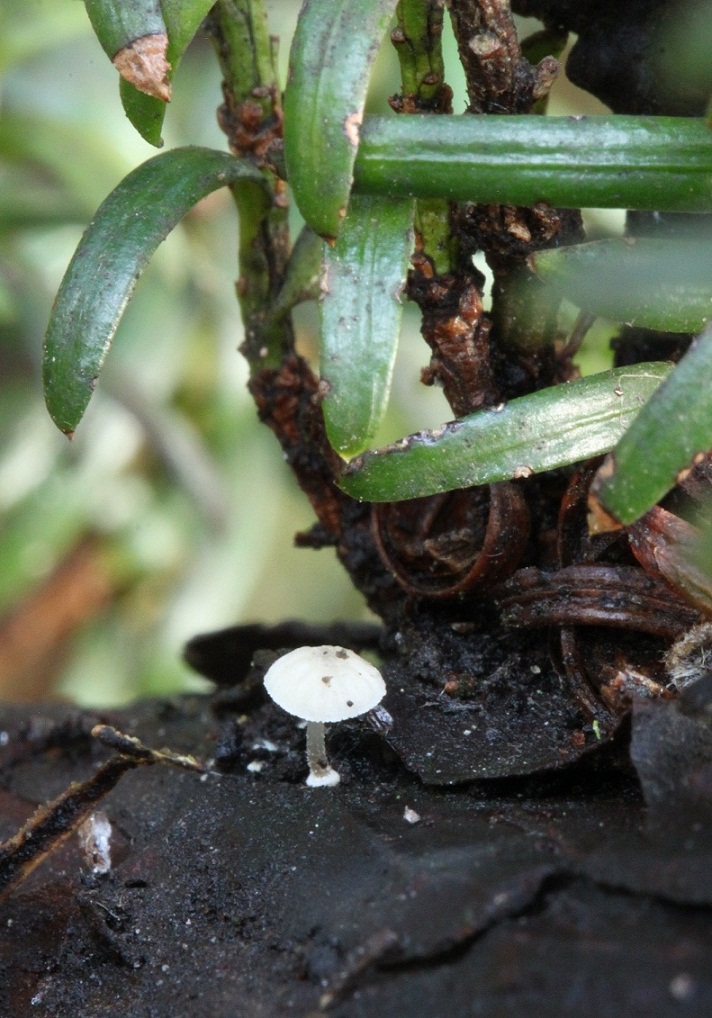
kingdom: Fungi
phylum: Basidiomycota
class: Agaricomycetes
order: Agaricales
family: Mycenaceae
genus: Mycena
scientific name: Mycena clavularis
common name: dunskivet huesvamp
